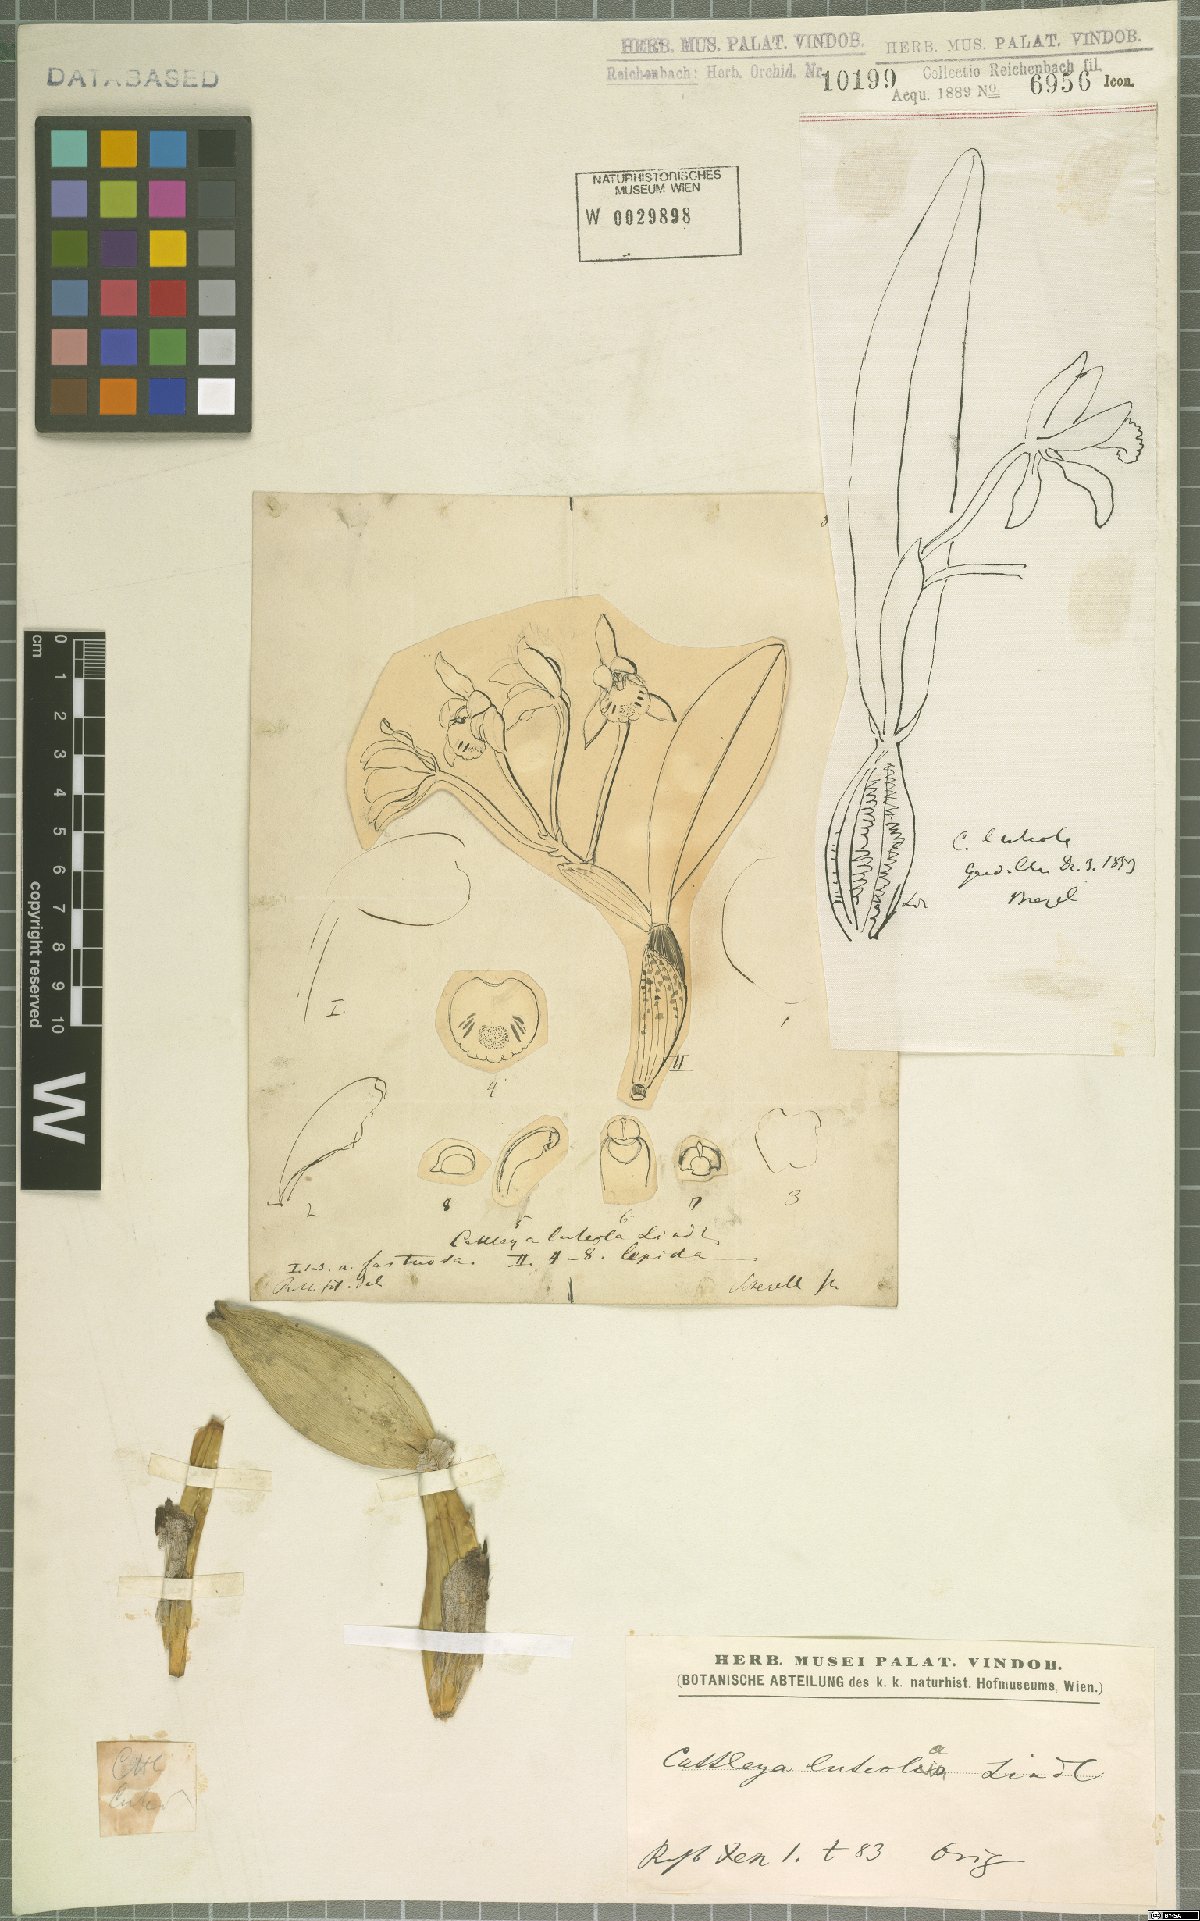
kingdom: Plantae
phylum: Tracheophyta
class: Liliopsida
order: Asparagales
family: Orchidaceae
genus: Cattleya
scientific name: Cattleya luteola
